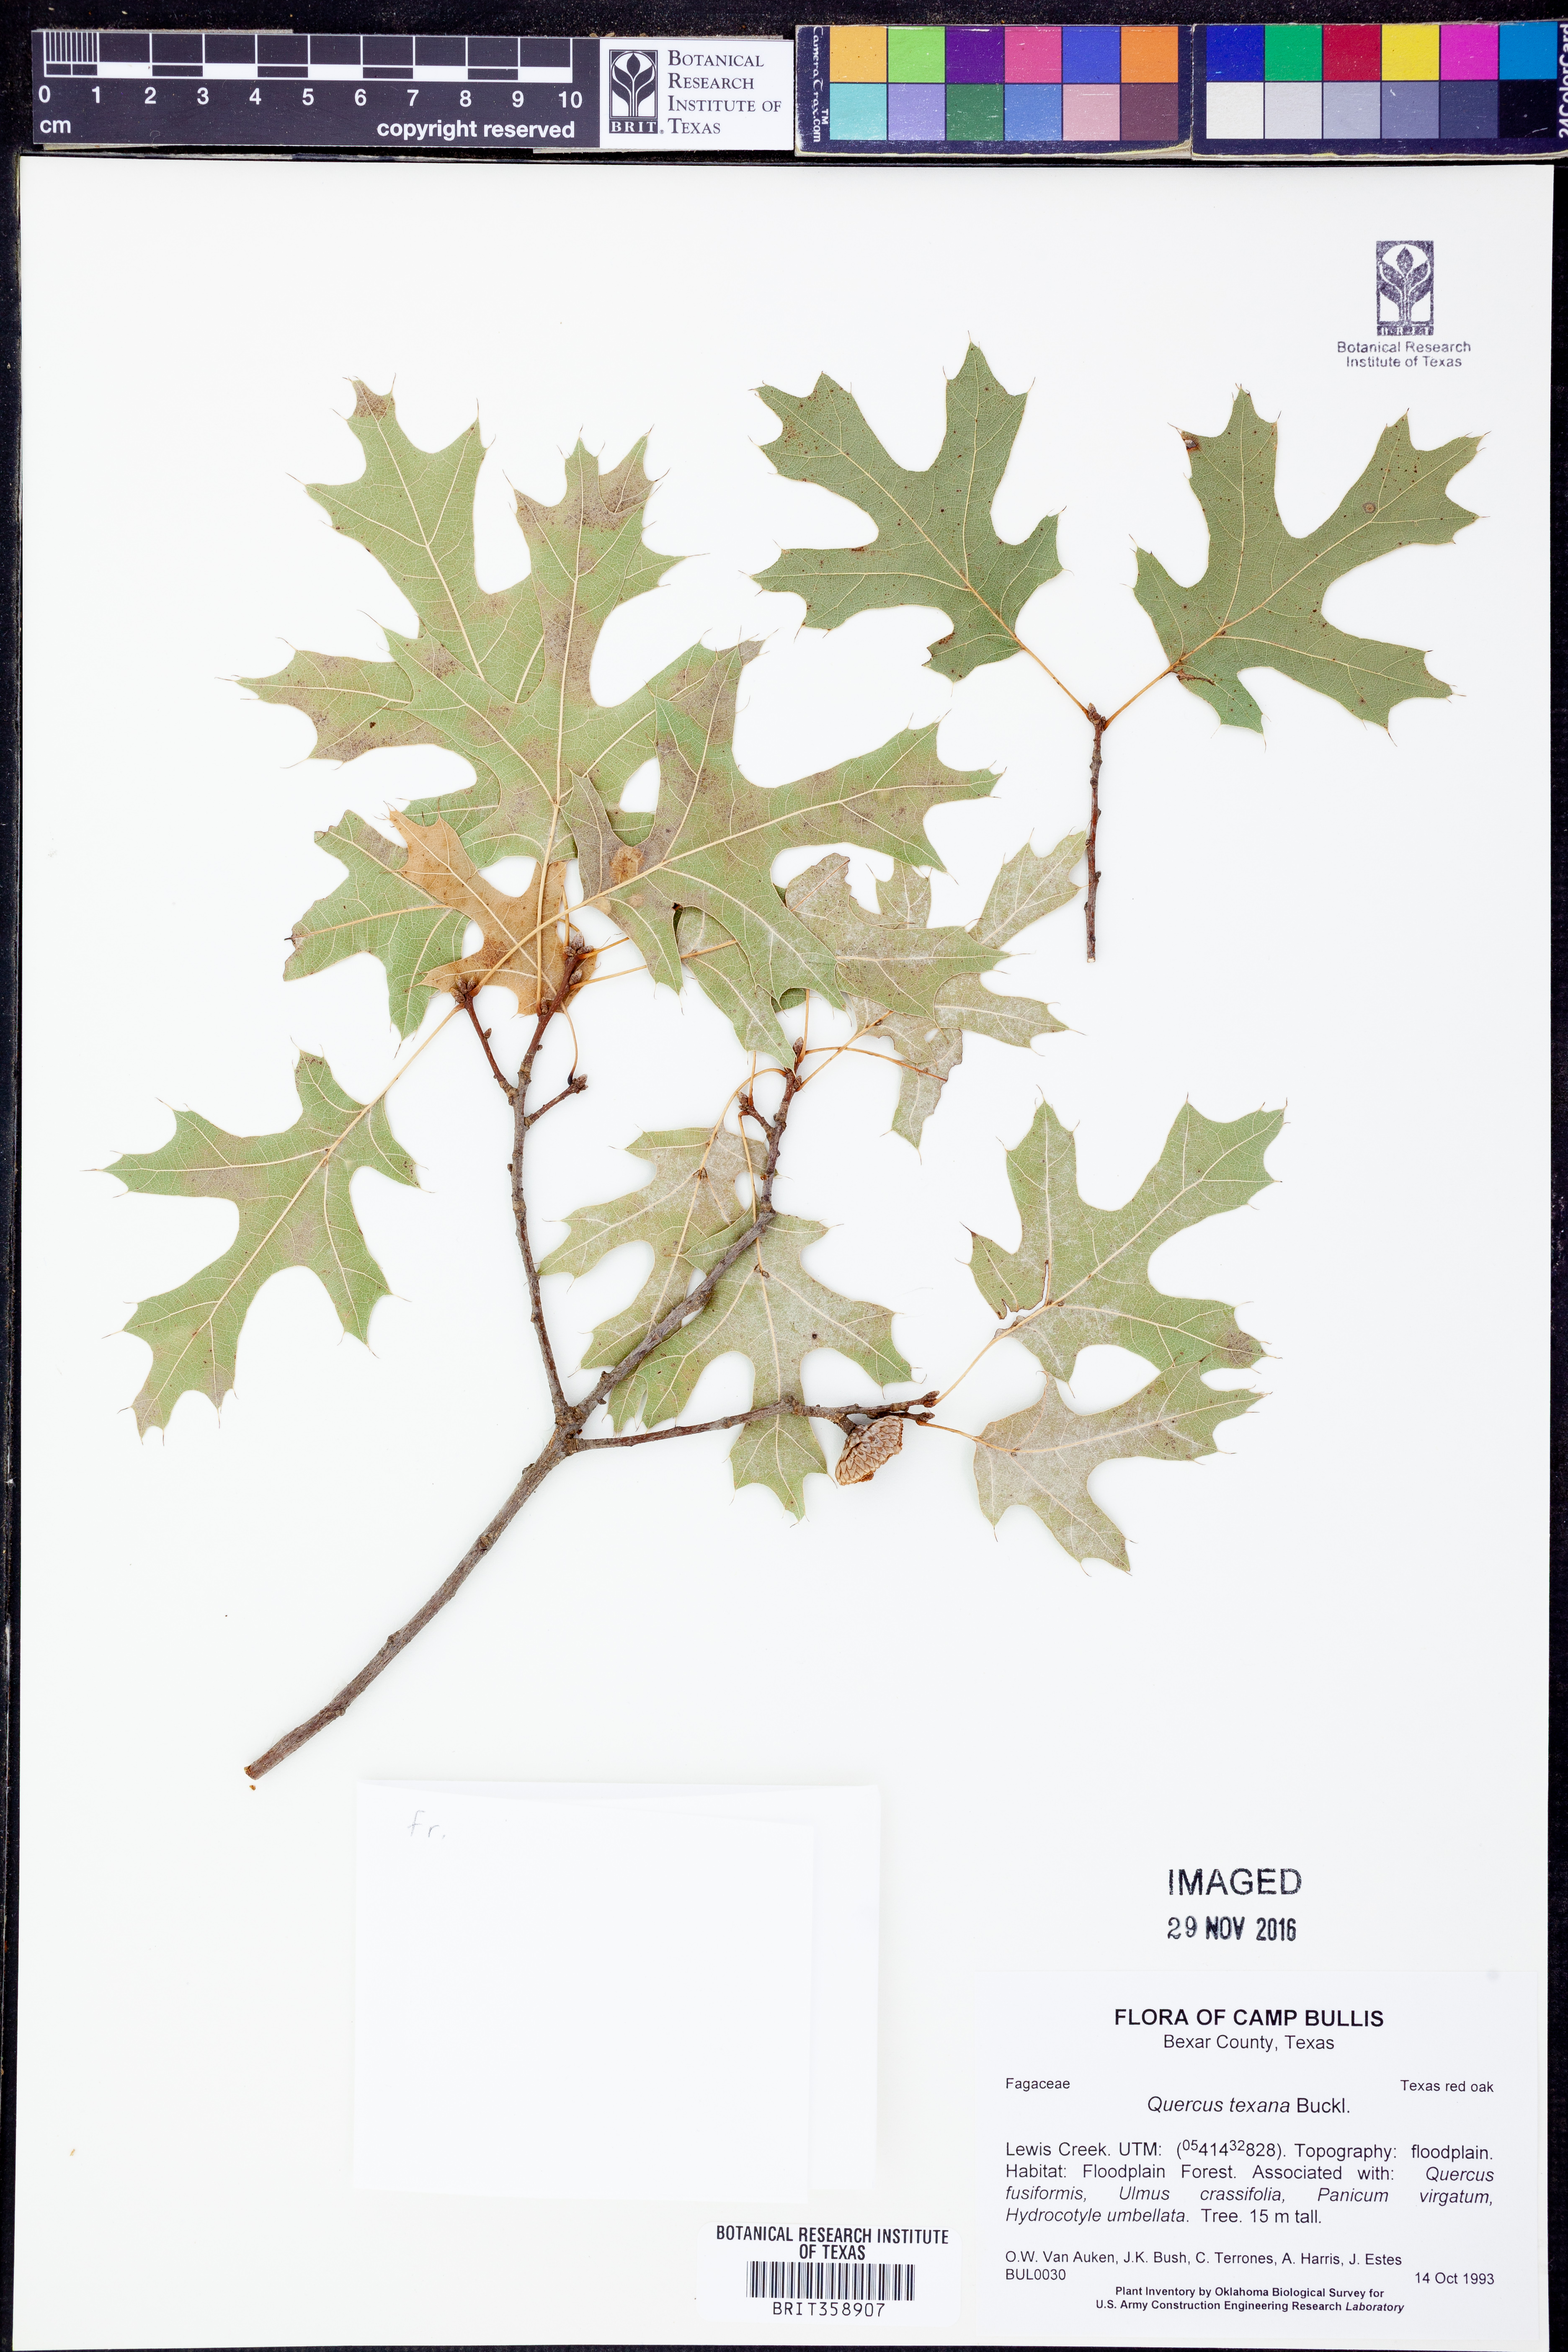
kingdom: Plantae
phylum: Tracheophyta
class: Magnoliopsida
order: Fagales
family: Fagaceae
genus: Quercus
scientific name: Quercus texana
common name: Nuttall oak
